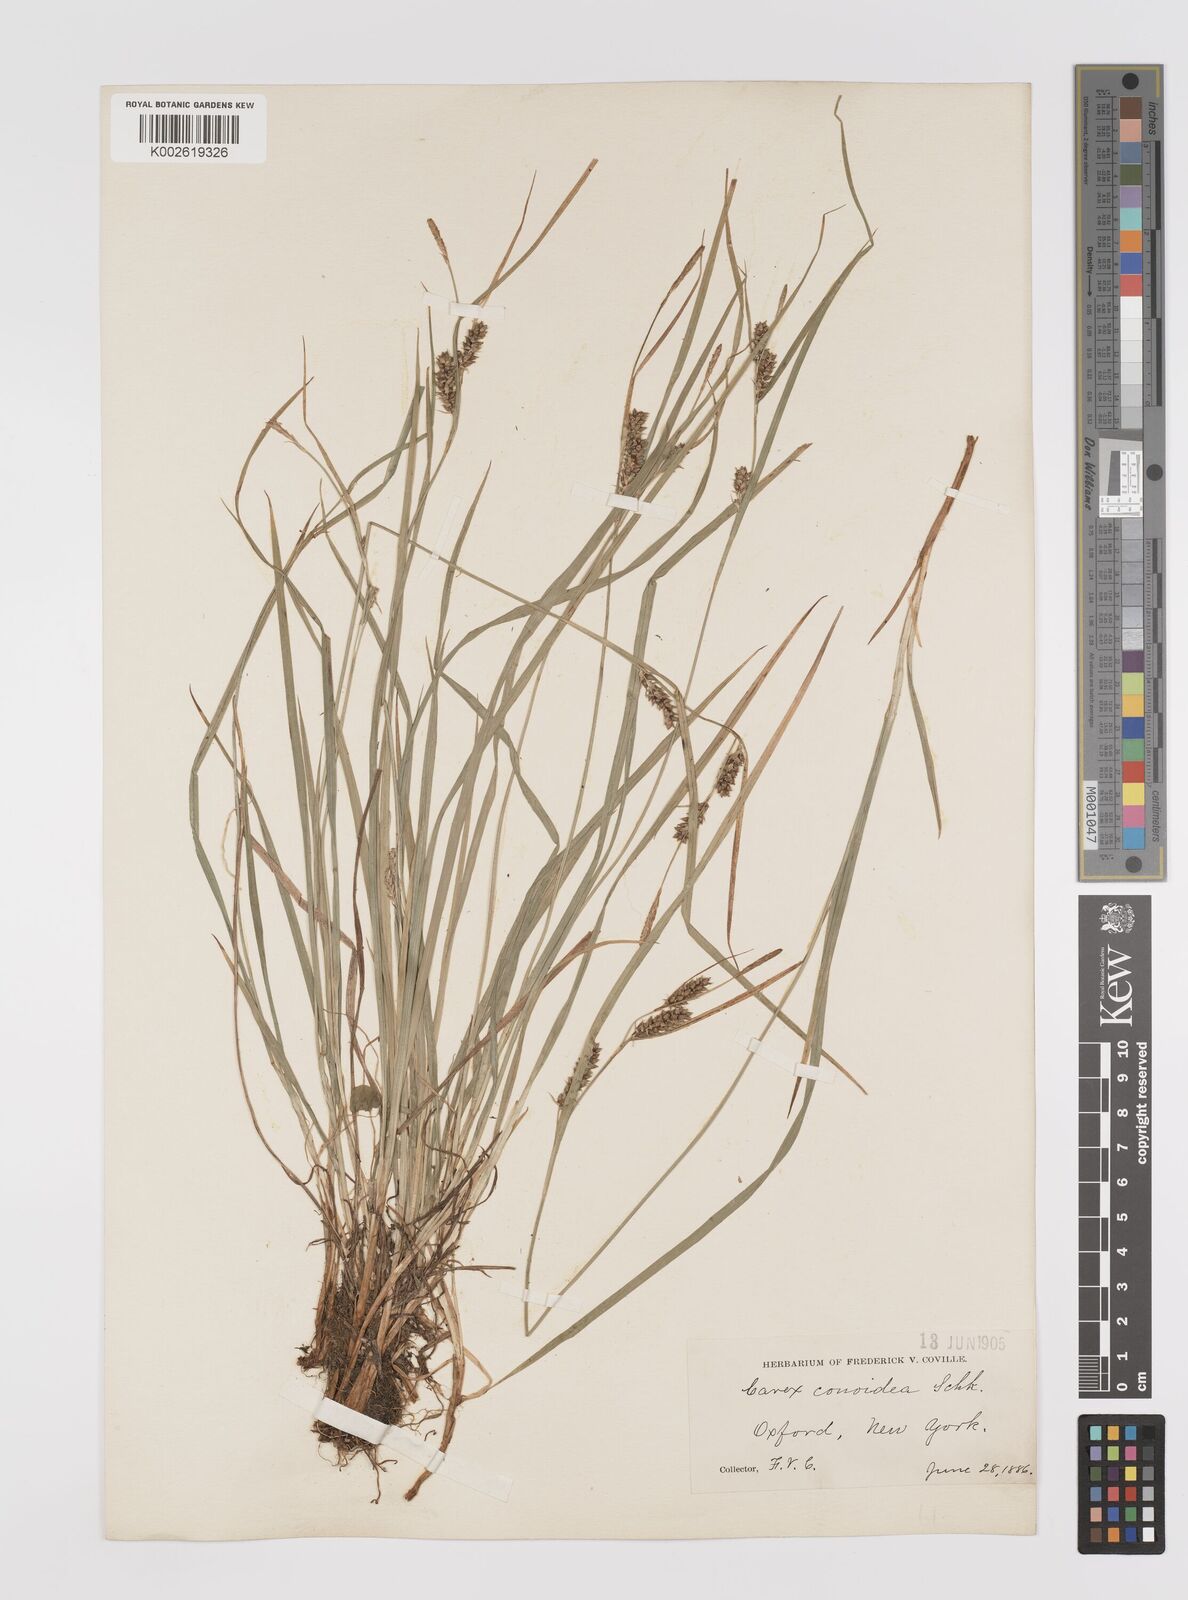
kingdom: Plantae
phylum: Tracheophyta
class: Liliopsida
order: Poales
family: Cyperaceae
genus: Carex
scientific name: Carex conoidea
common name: Cone shaped sedge
